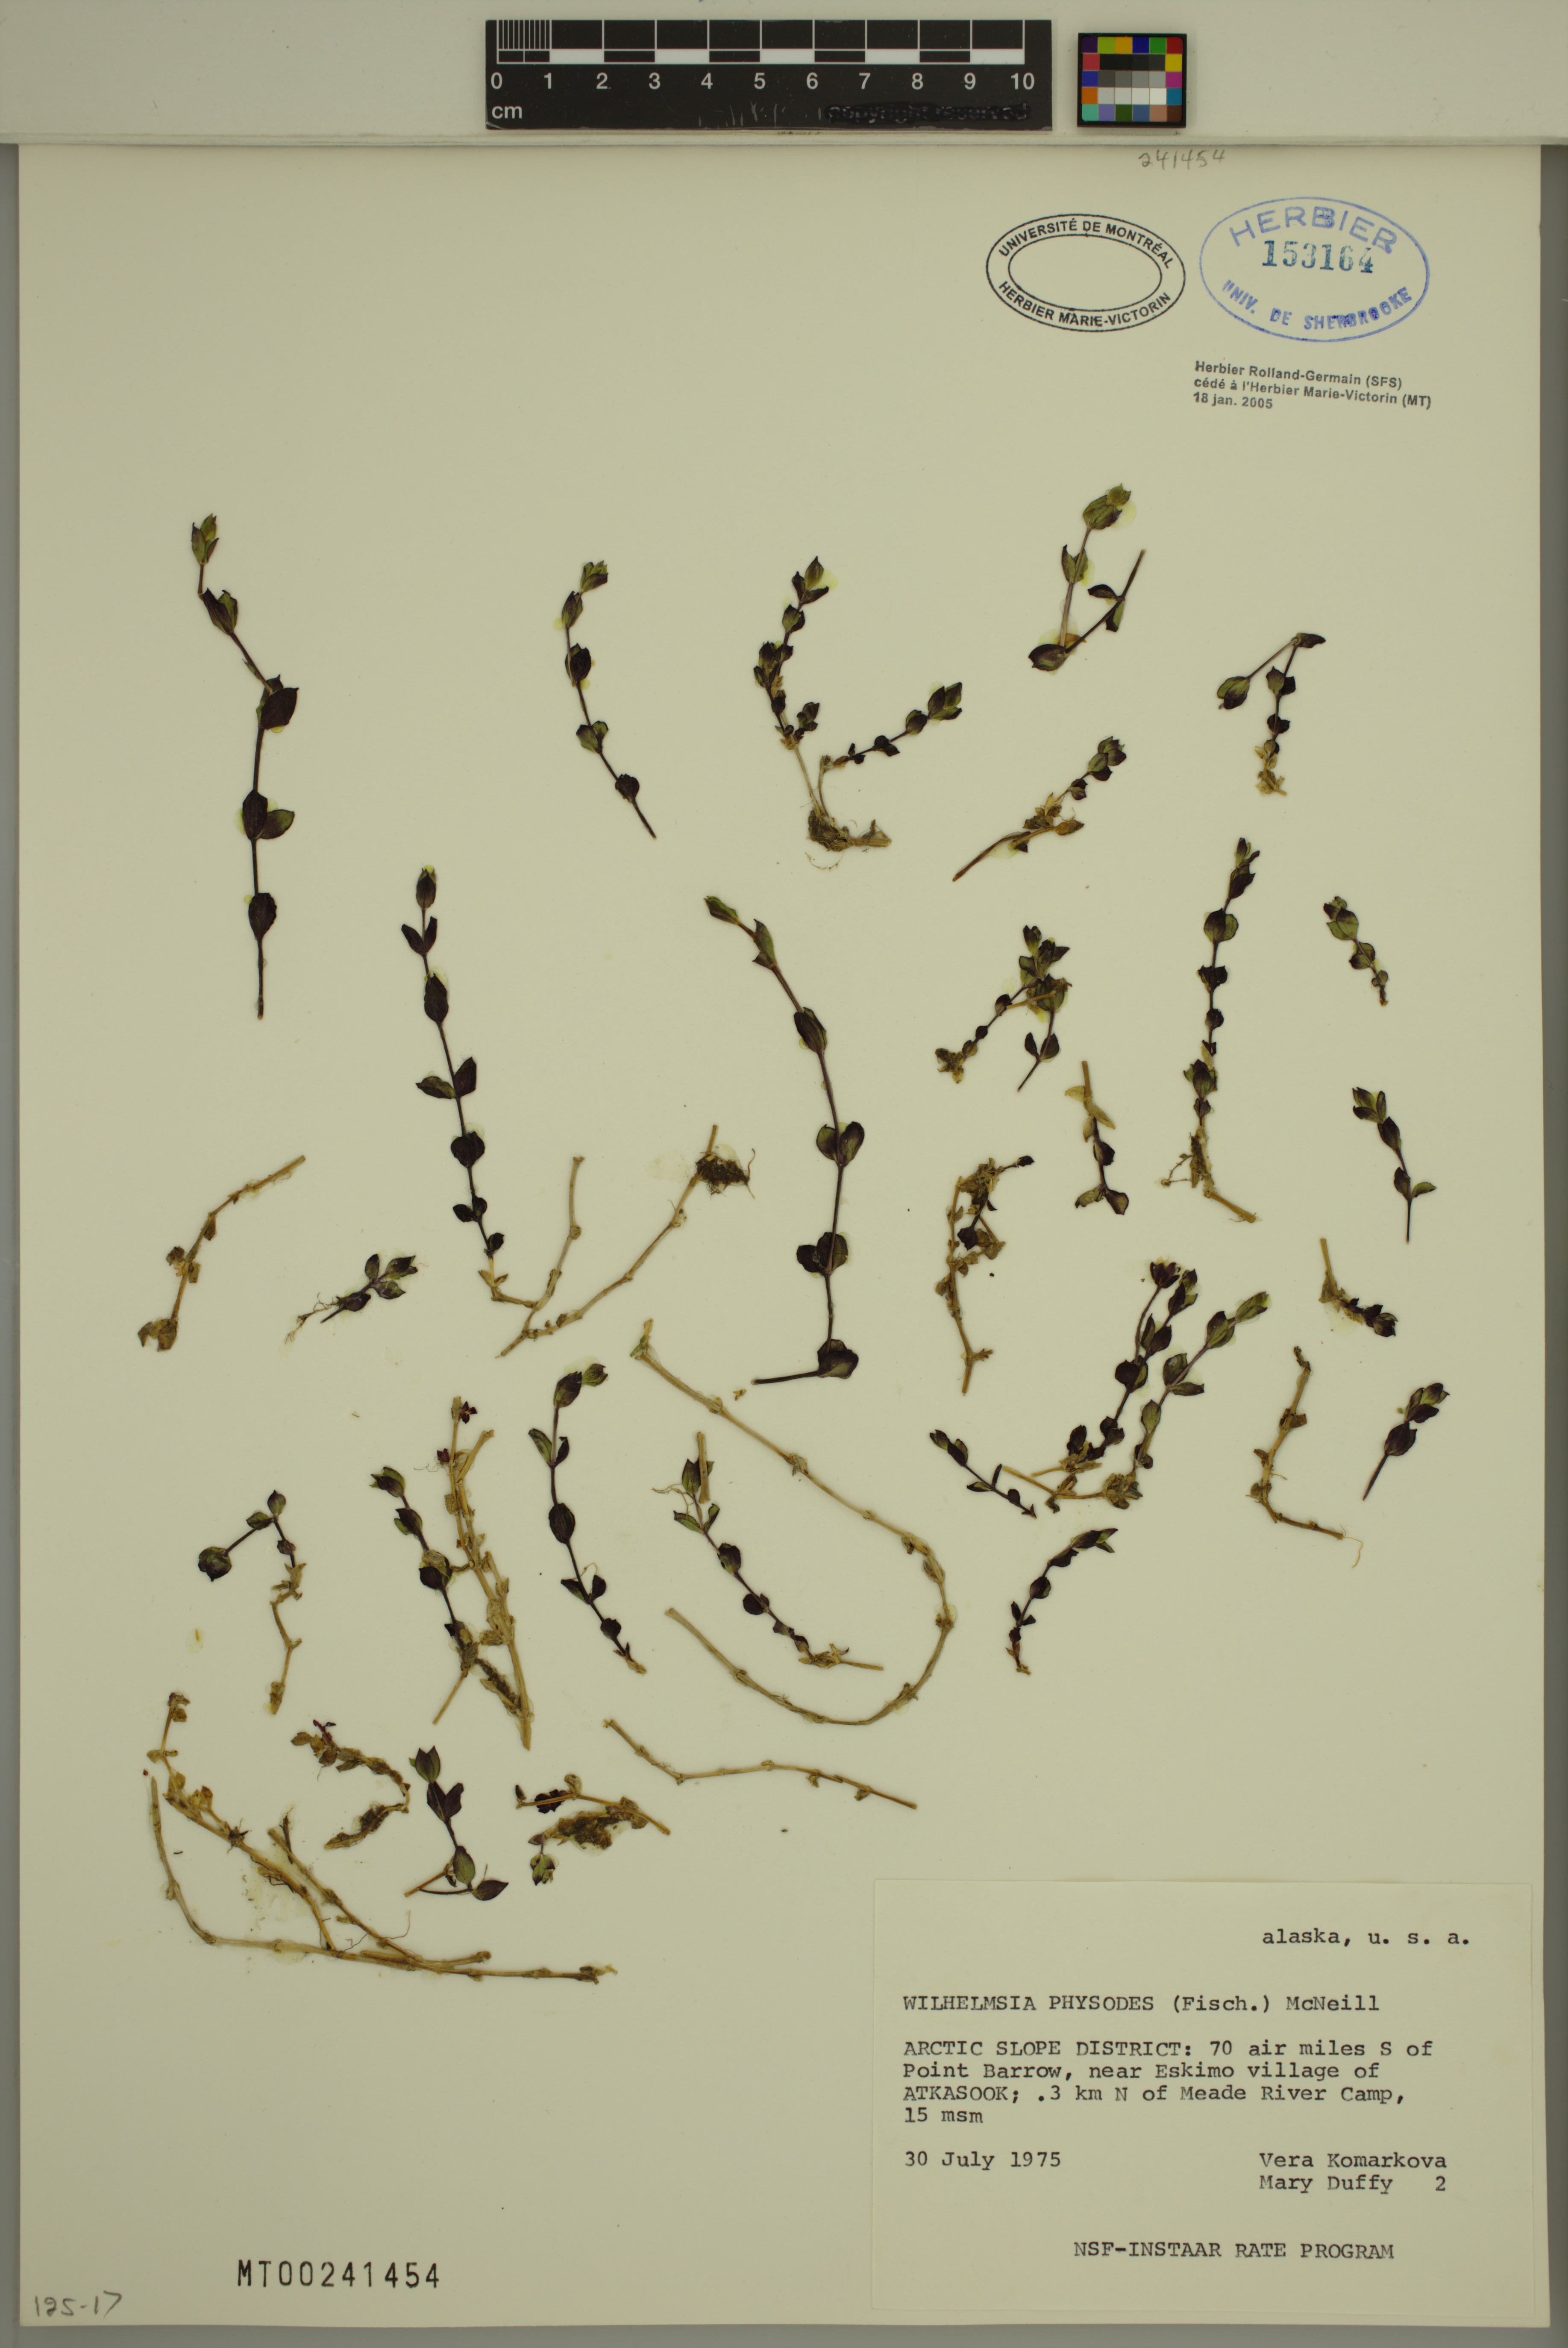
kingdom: Plantae
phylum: Tracheophyta
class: Magnoliopsida
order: Caryophyllales
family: Caryophyllaceae
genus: Wilhelmsia
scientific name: Wilhelmsia physodes
